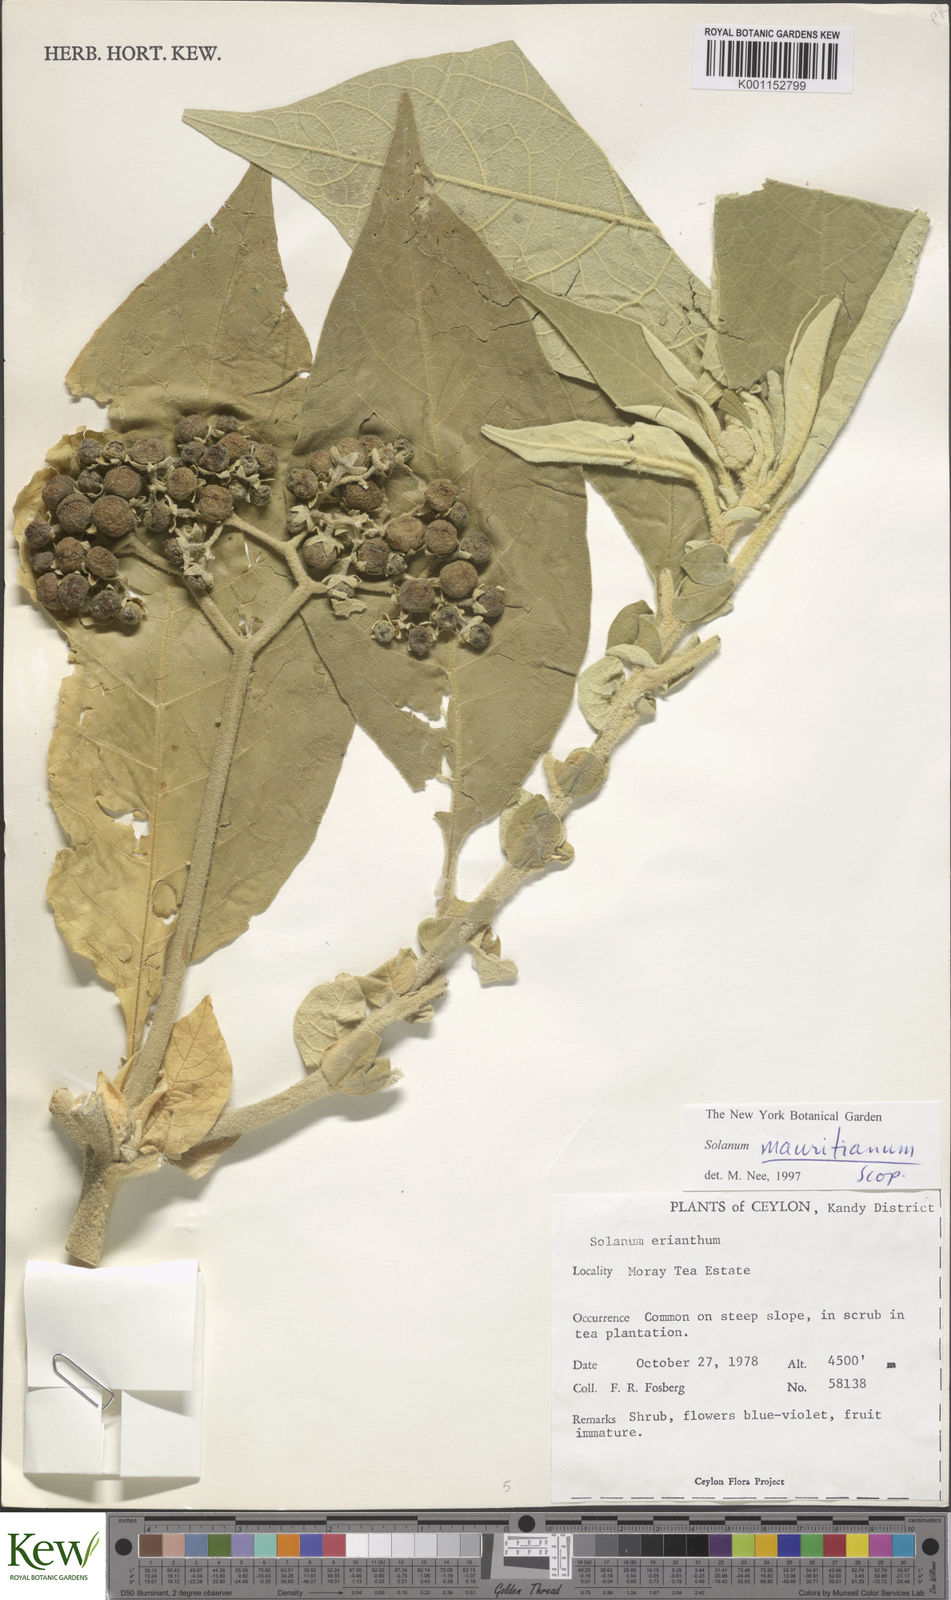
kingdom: Plantae
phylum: Tracheophyta
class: Magnoliopsida
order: Solanales
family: Solanaceae
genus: Solanum
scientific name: Solanum mauritianum
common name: Earleaf nightshade
